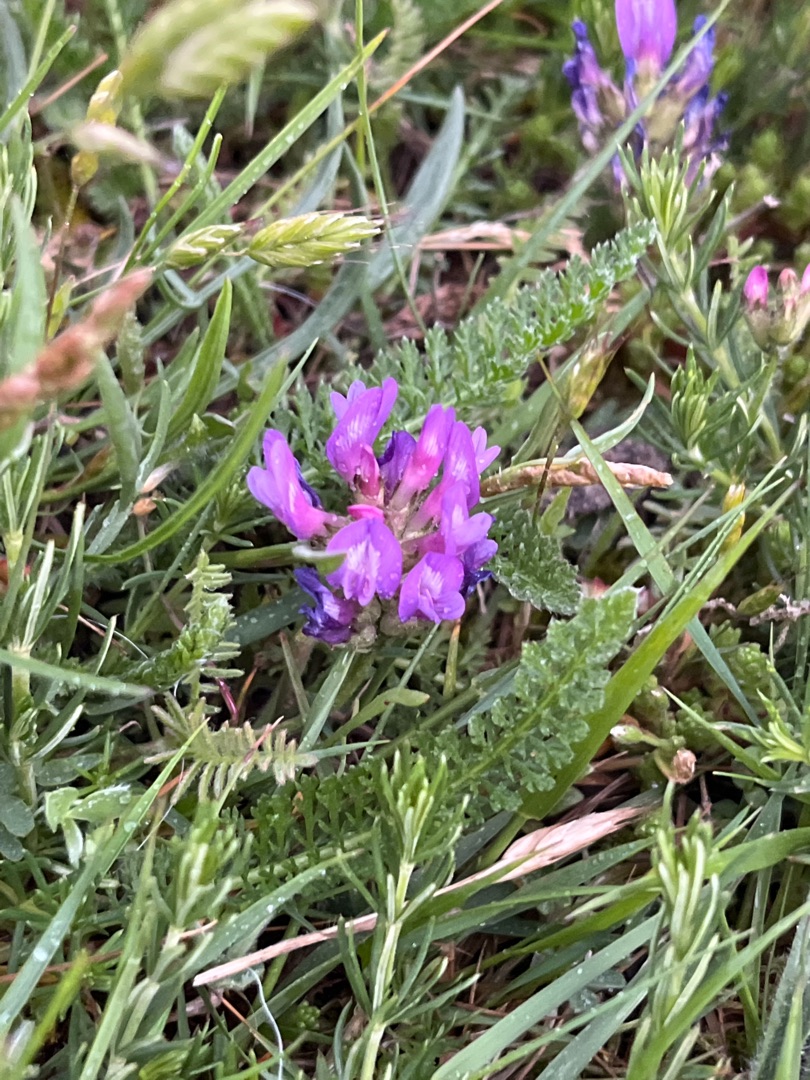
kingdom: Plantae
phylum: Tracheophyta
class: Magnoliopsida
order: Fabales
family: Fabaceae
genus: Astragalus
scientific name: Astragalus danicus
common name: Dansk astragel
